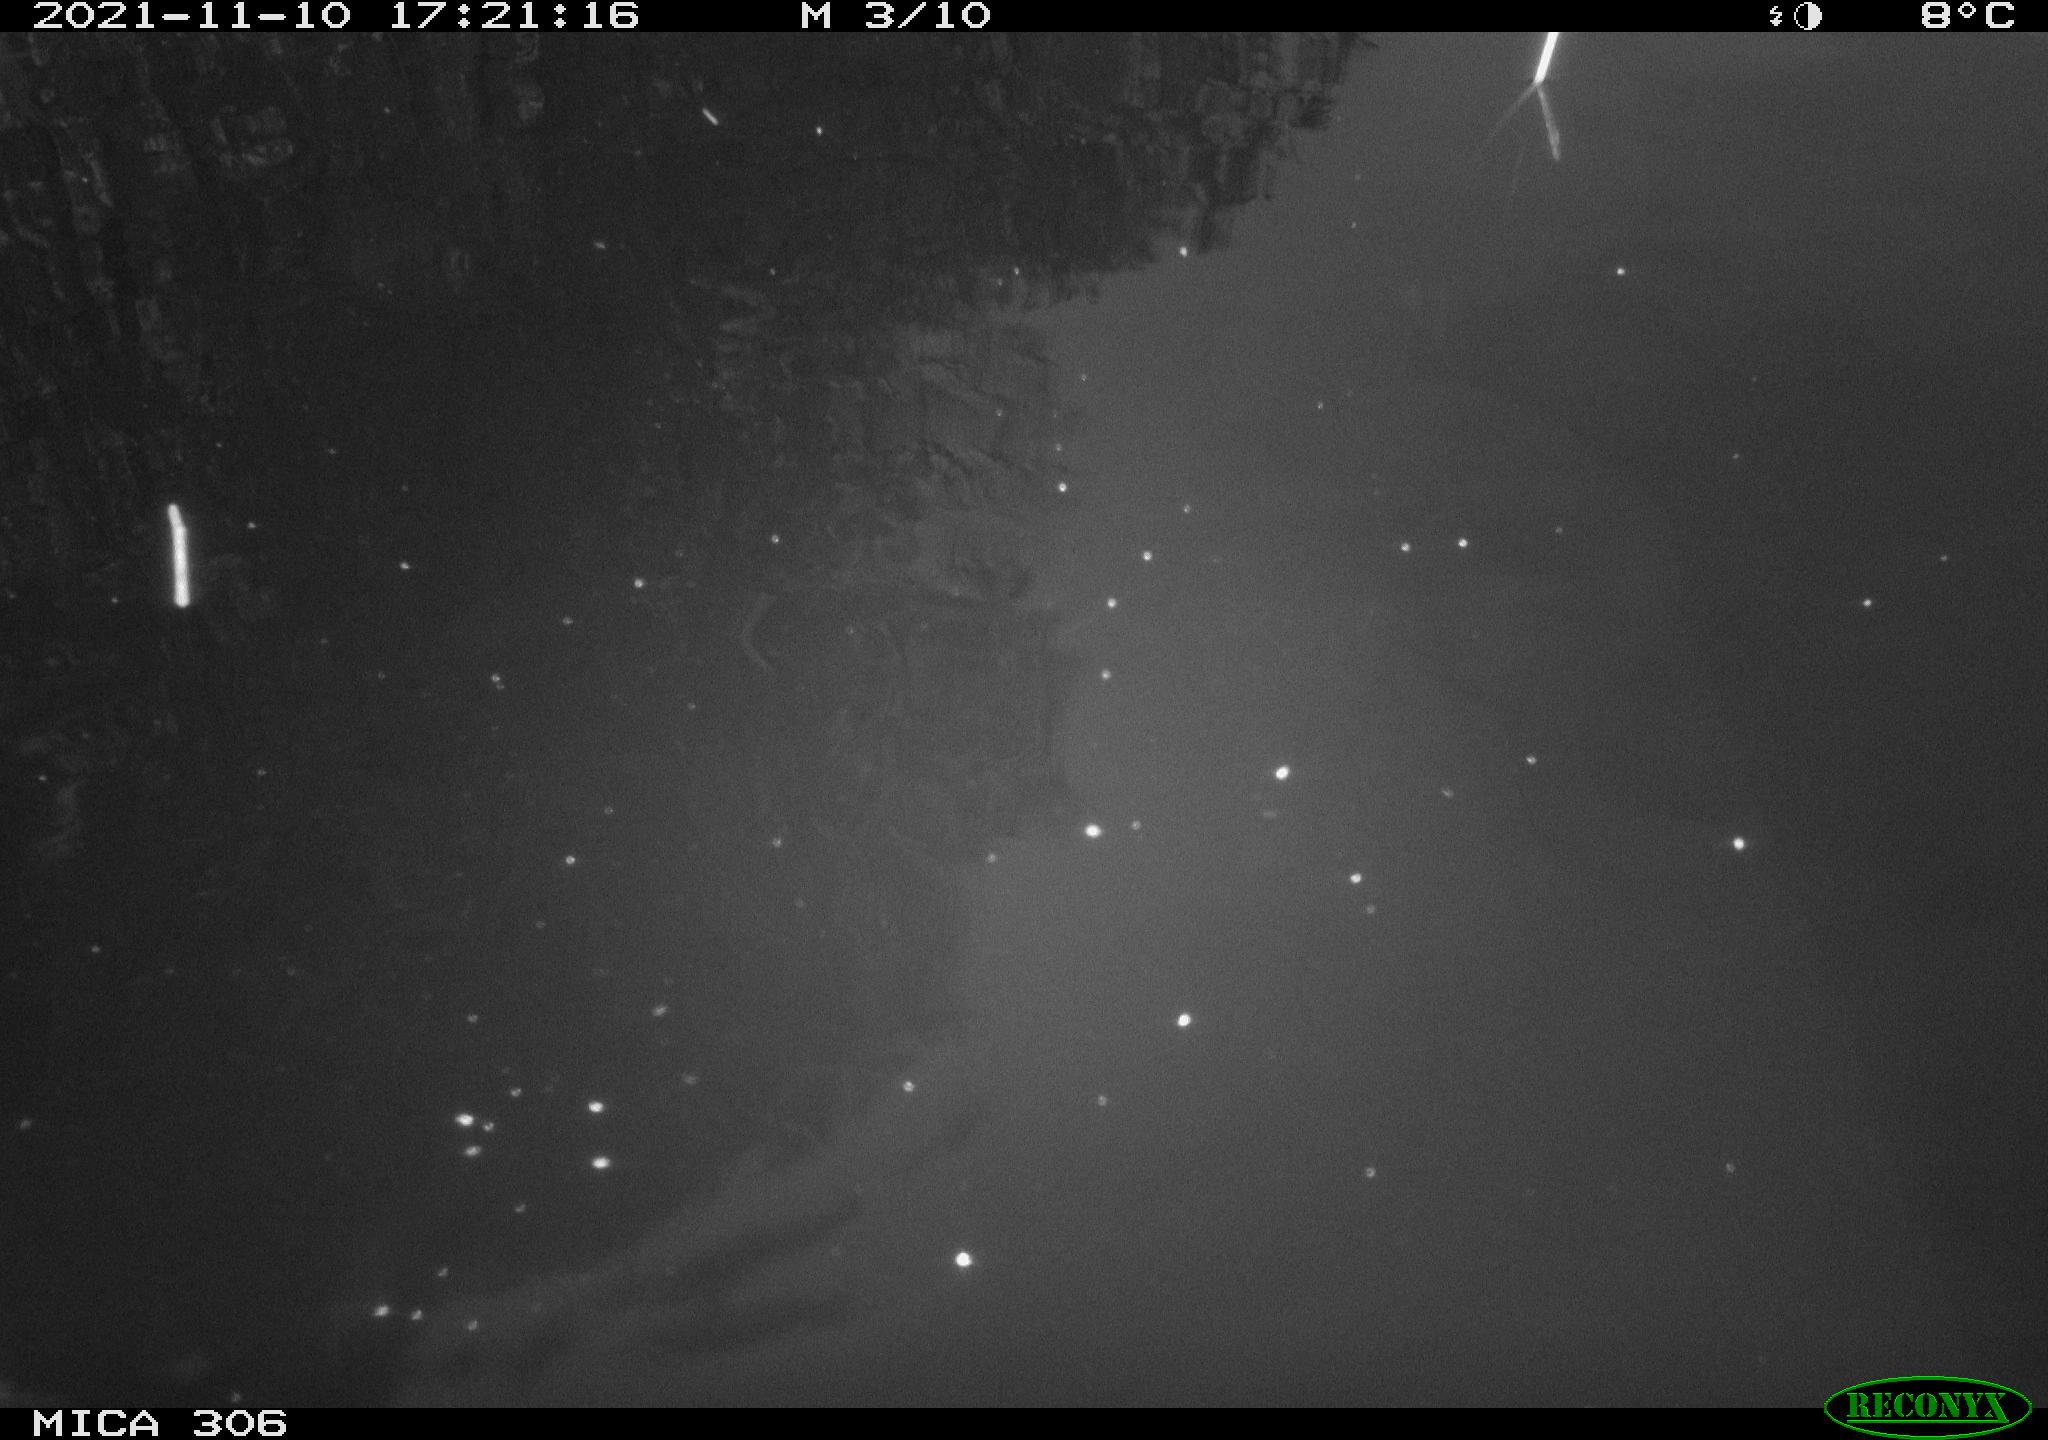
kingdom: Animalia
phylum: Chordata
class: Aves
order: Gruiformes
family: Rallidae
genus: Fulica
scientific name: Fulica atra
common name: Eurasian coot
